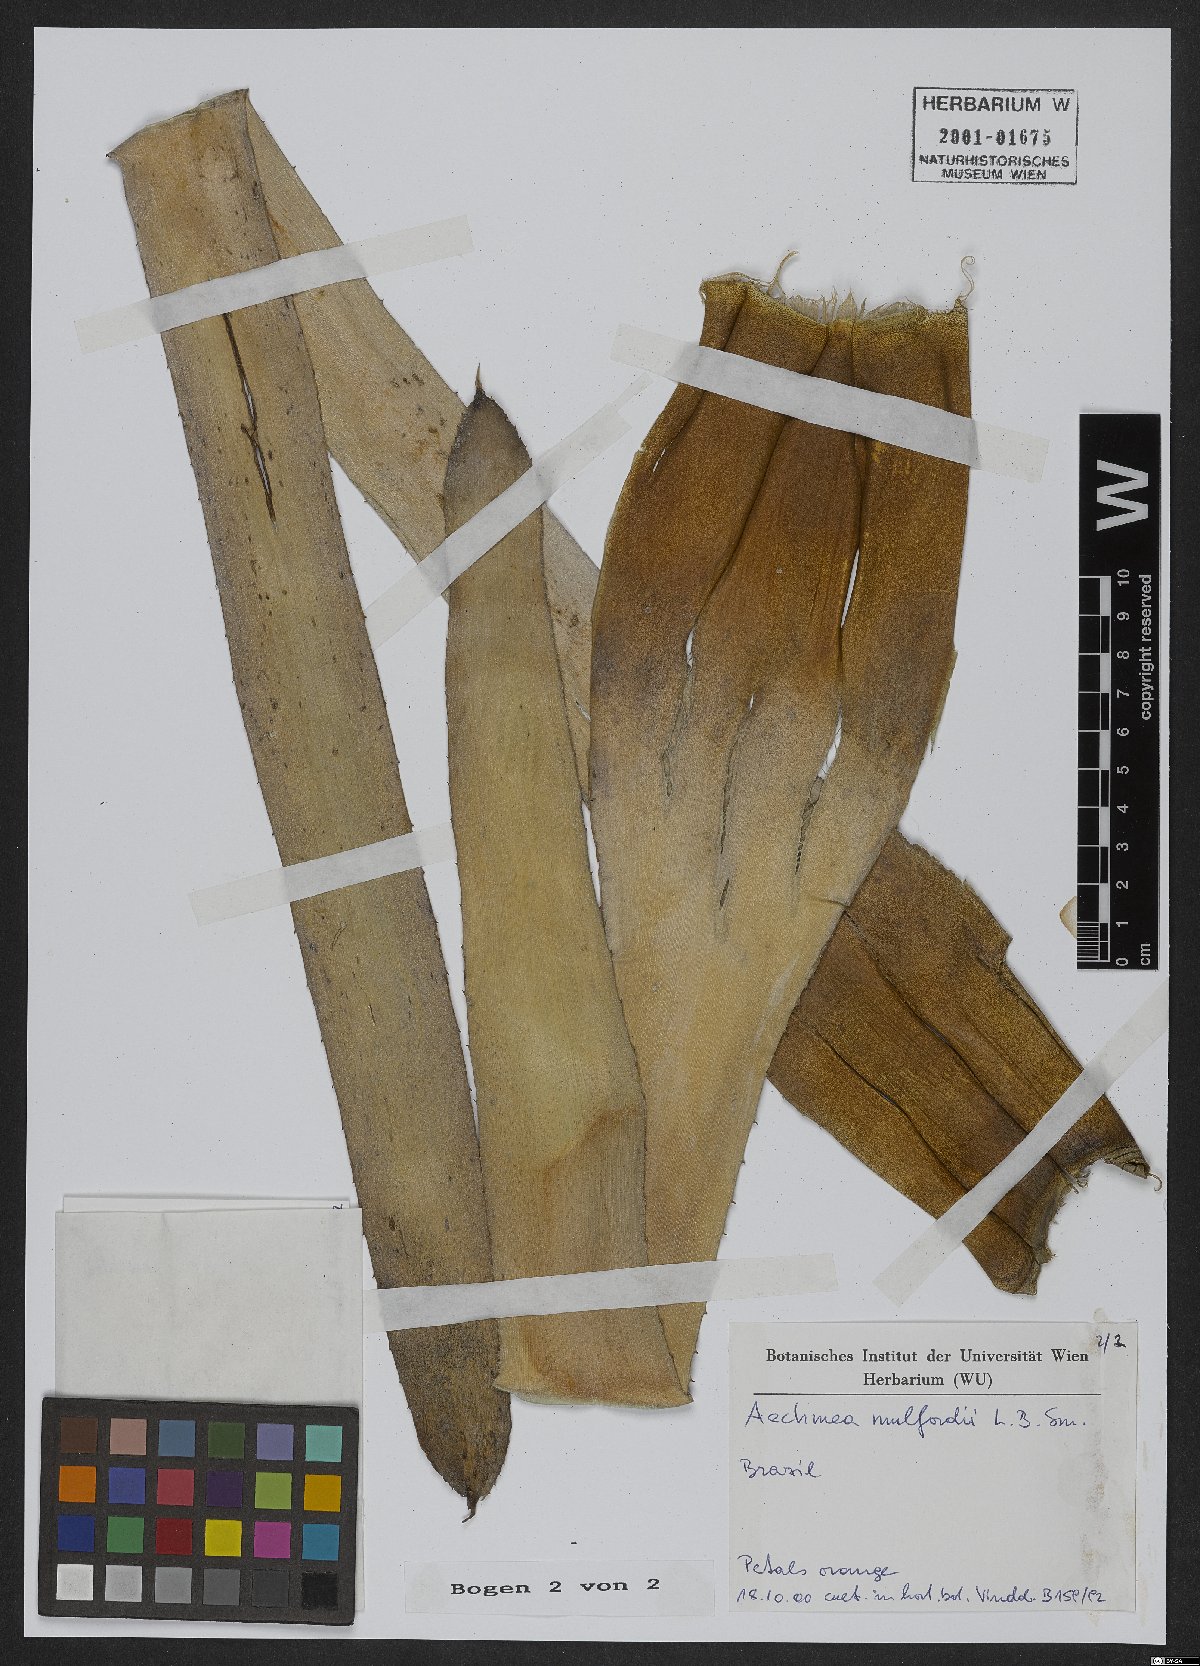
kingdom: Plantae
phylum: Tracheophyta
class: Liliopsida
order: Poales
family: Bromeliaceae
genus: Karawata
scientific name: Karawata multiflora
